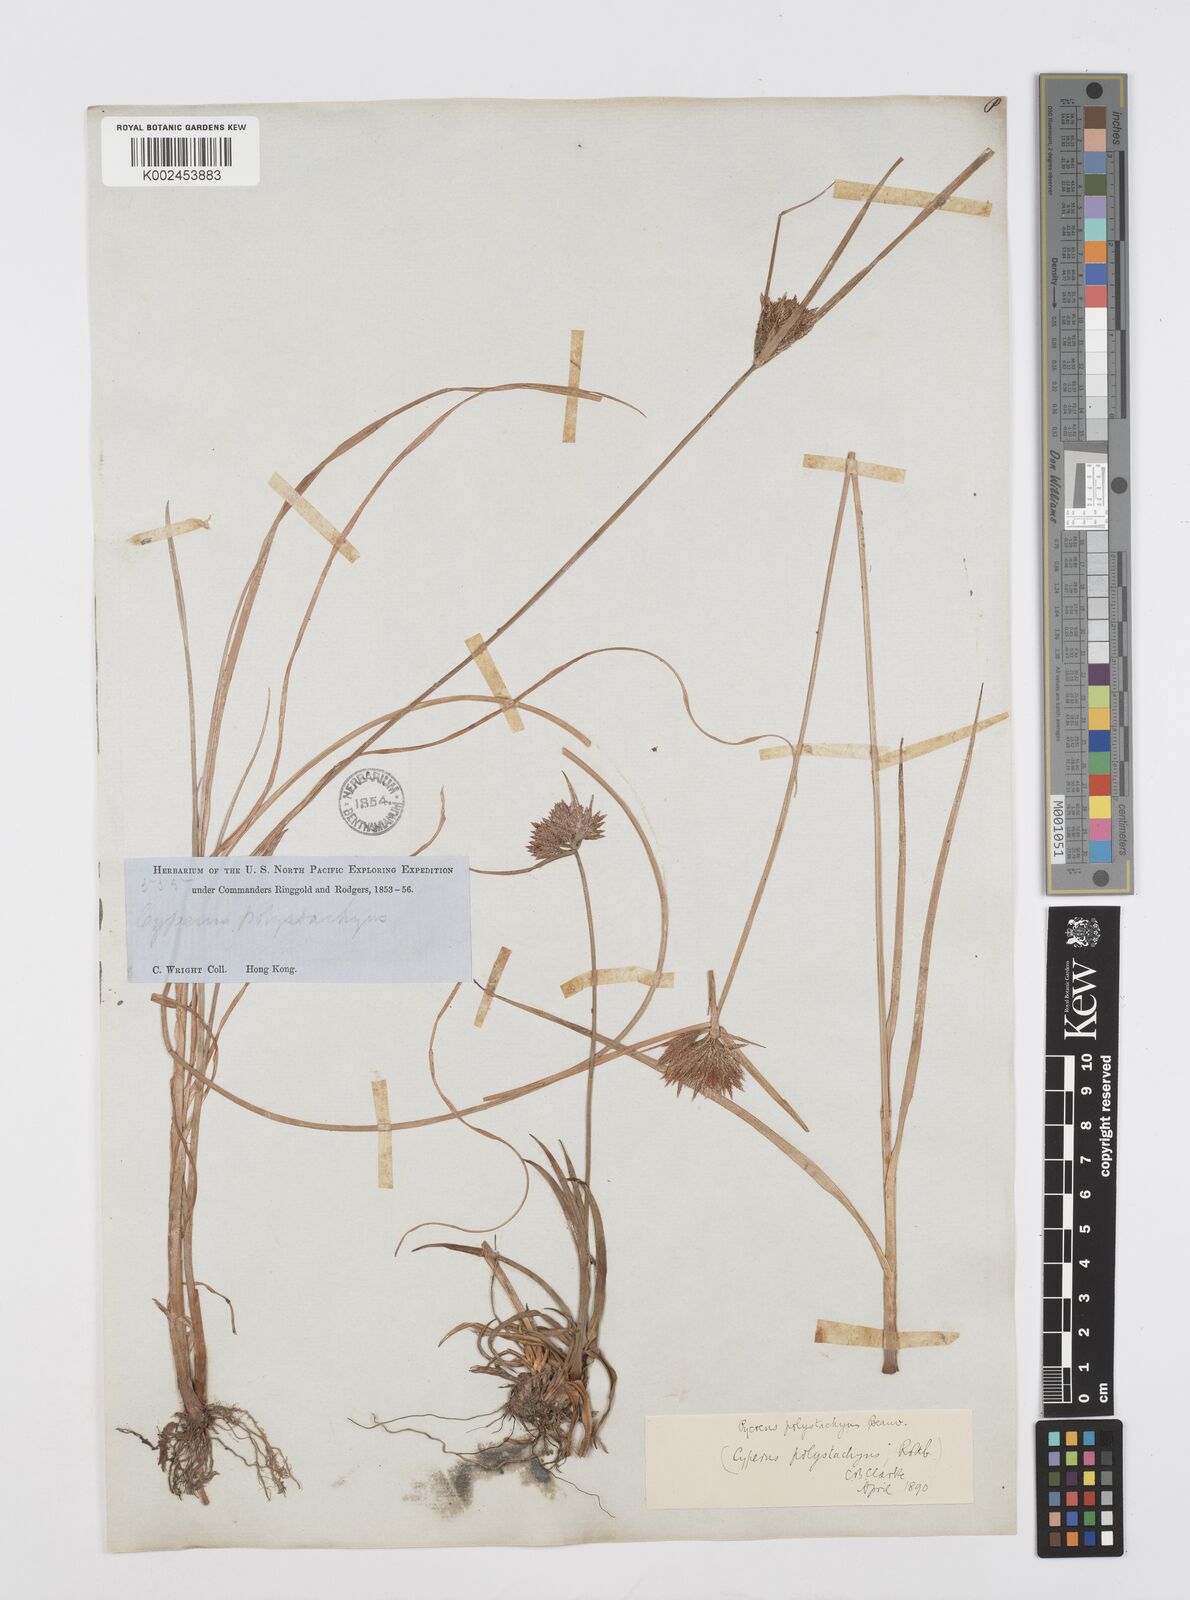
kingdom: Plantae
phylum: Tracheophyta
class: Liliopsida
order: Poales
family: Cyperaceae
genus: Cyperus
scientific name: Cyperus polystachyos
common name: Bunchy flat sedge
